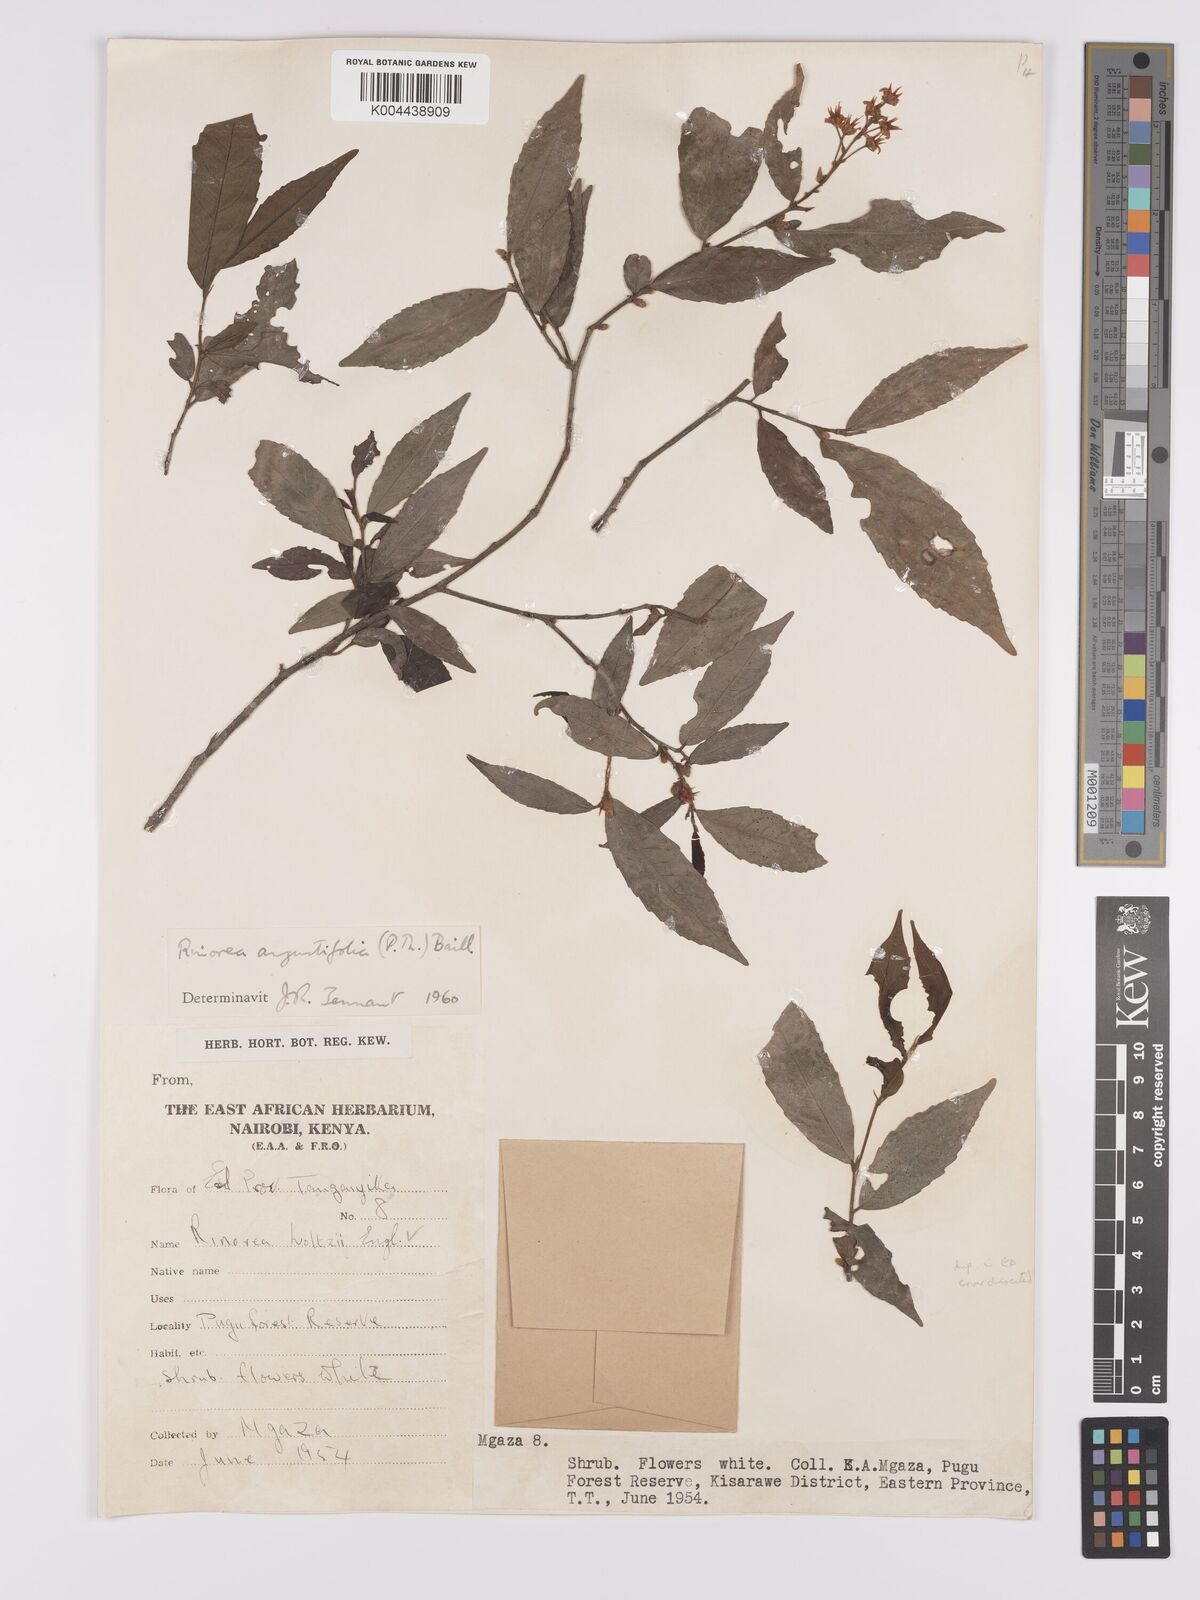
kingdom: Plantae
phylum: Tracheophyta
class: Magnoliopsida
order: Malpighiales
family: Violaceae
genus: Rinorea
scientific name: Rinorea angustifolia
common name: White violet-bush
